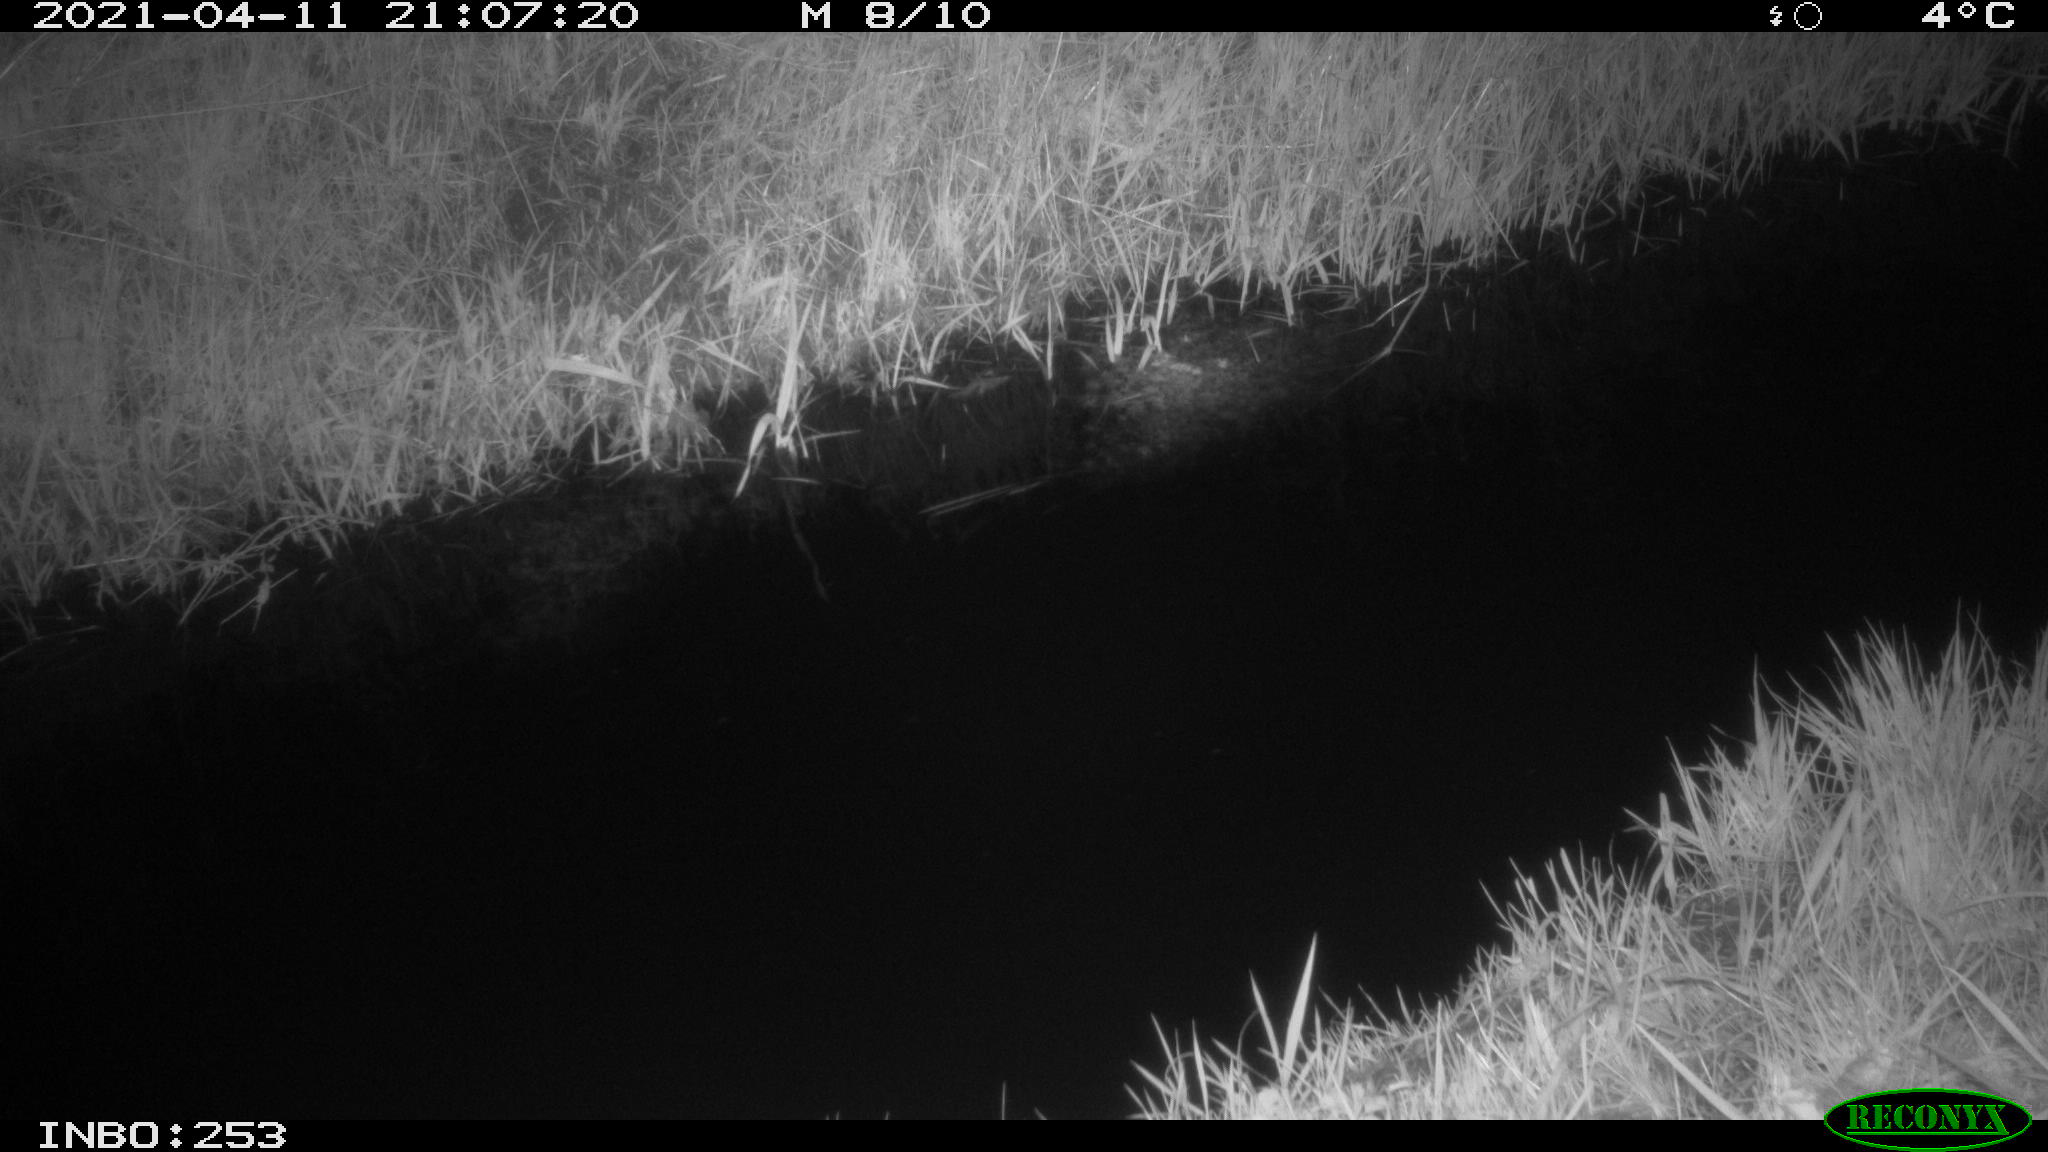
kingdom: Animalia
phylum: Chordata
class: Aves
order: Anseriformes
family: Anatidae
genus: Anas
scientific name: Anas platyrhynchos
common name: Mallard
